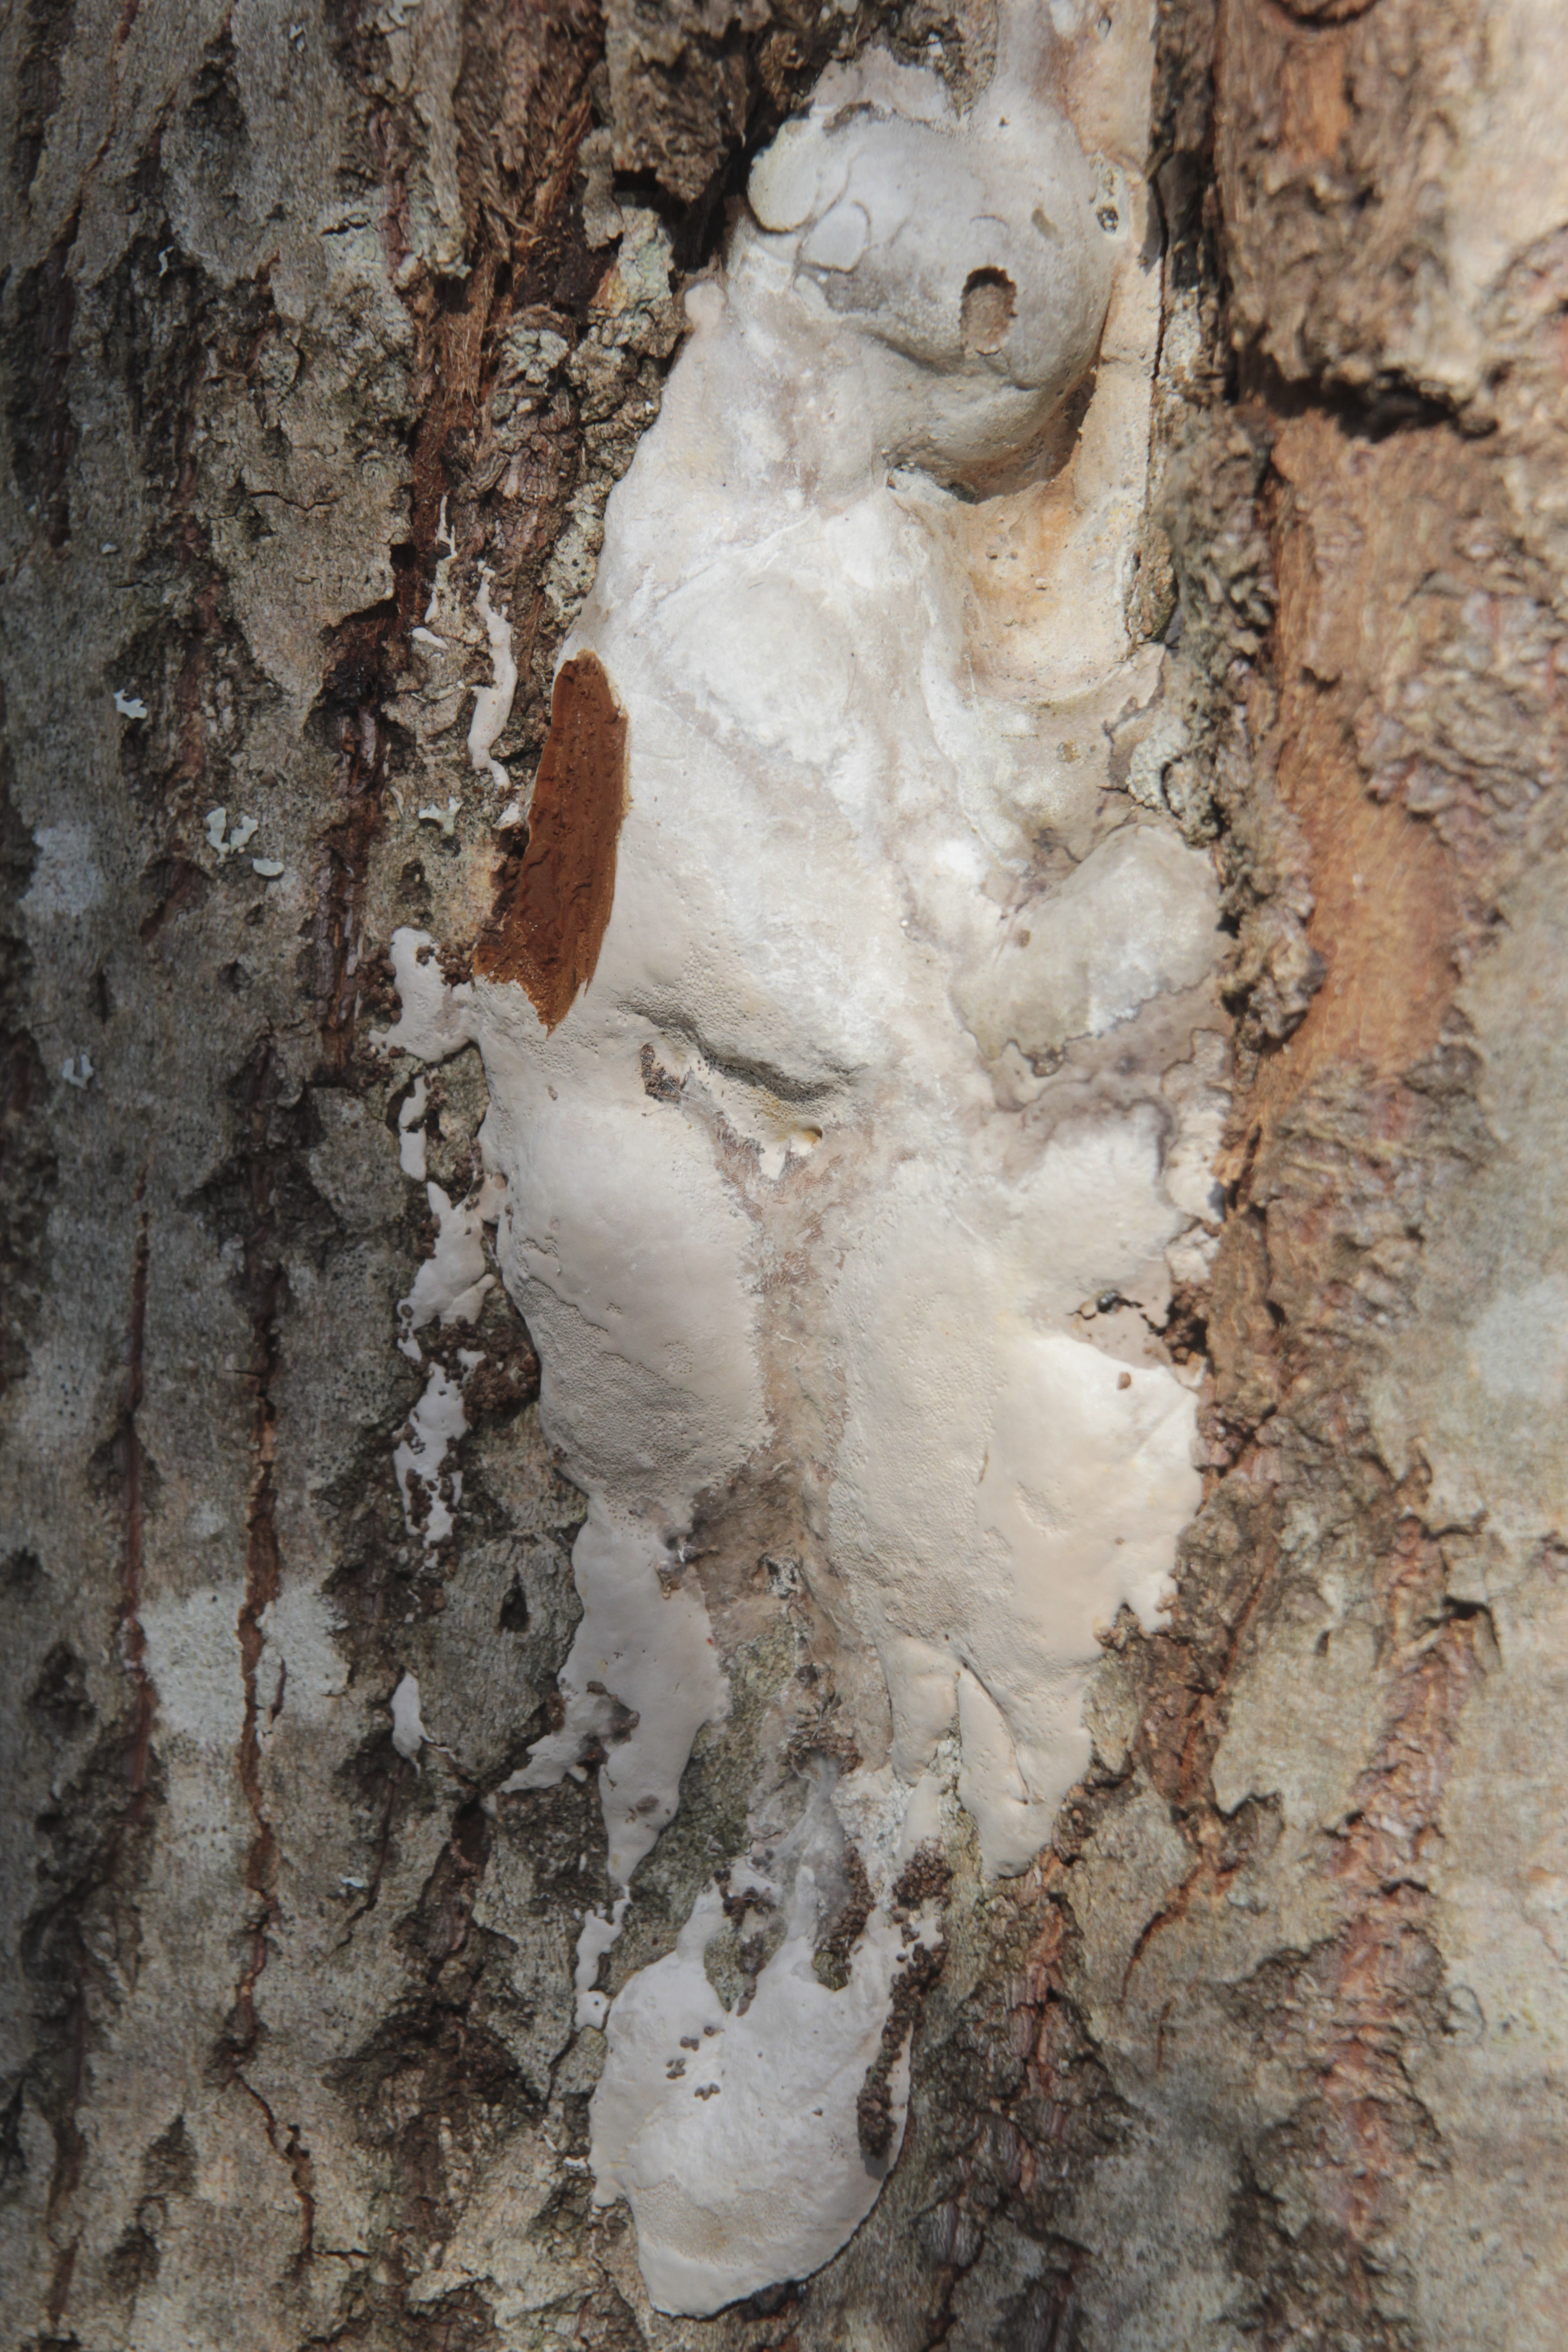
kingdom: Fungi
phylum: Basidiomycota
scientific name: Basidiomycota
